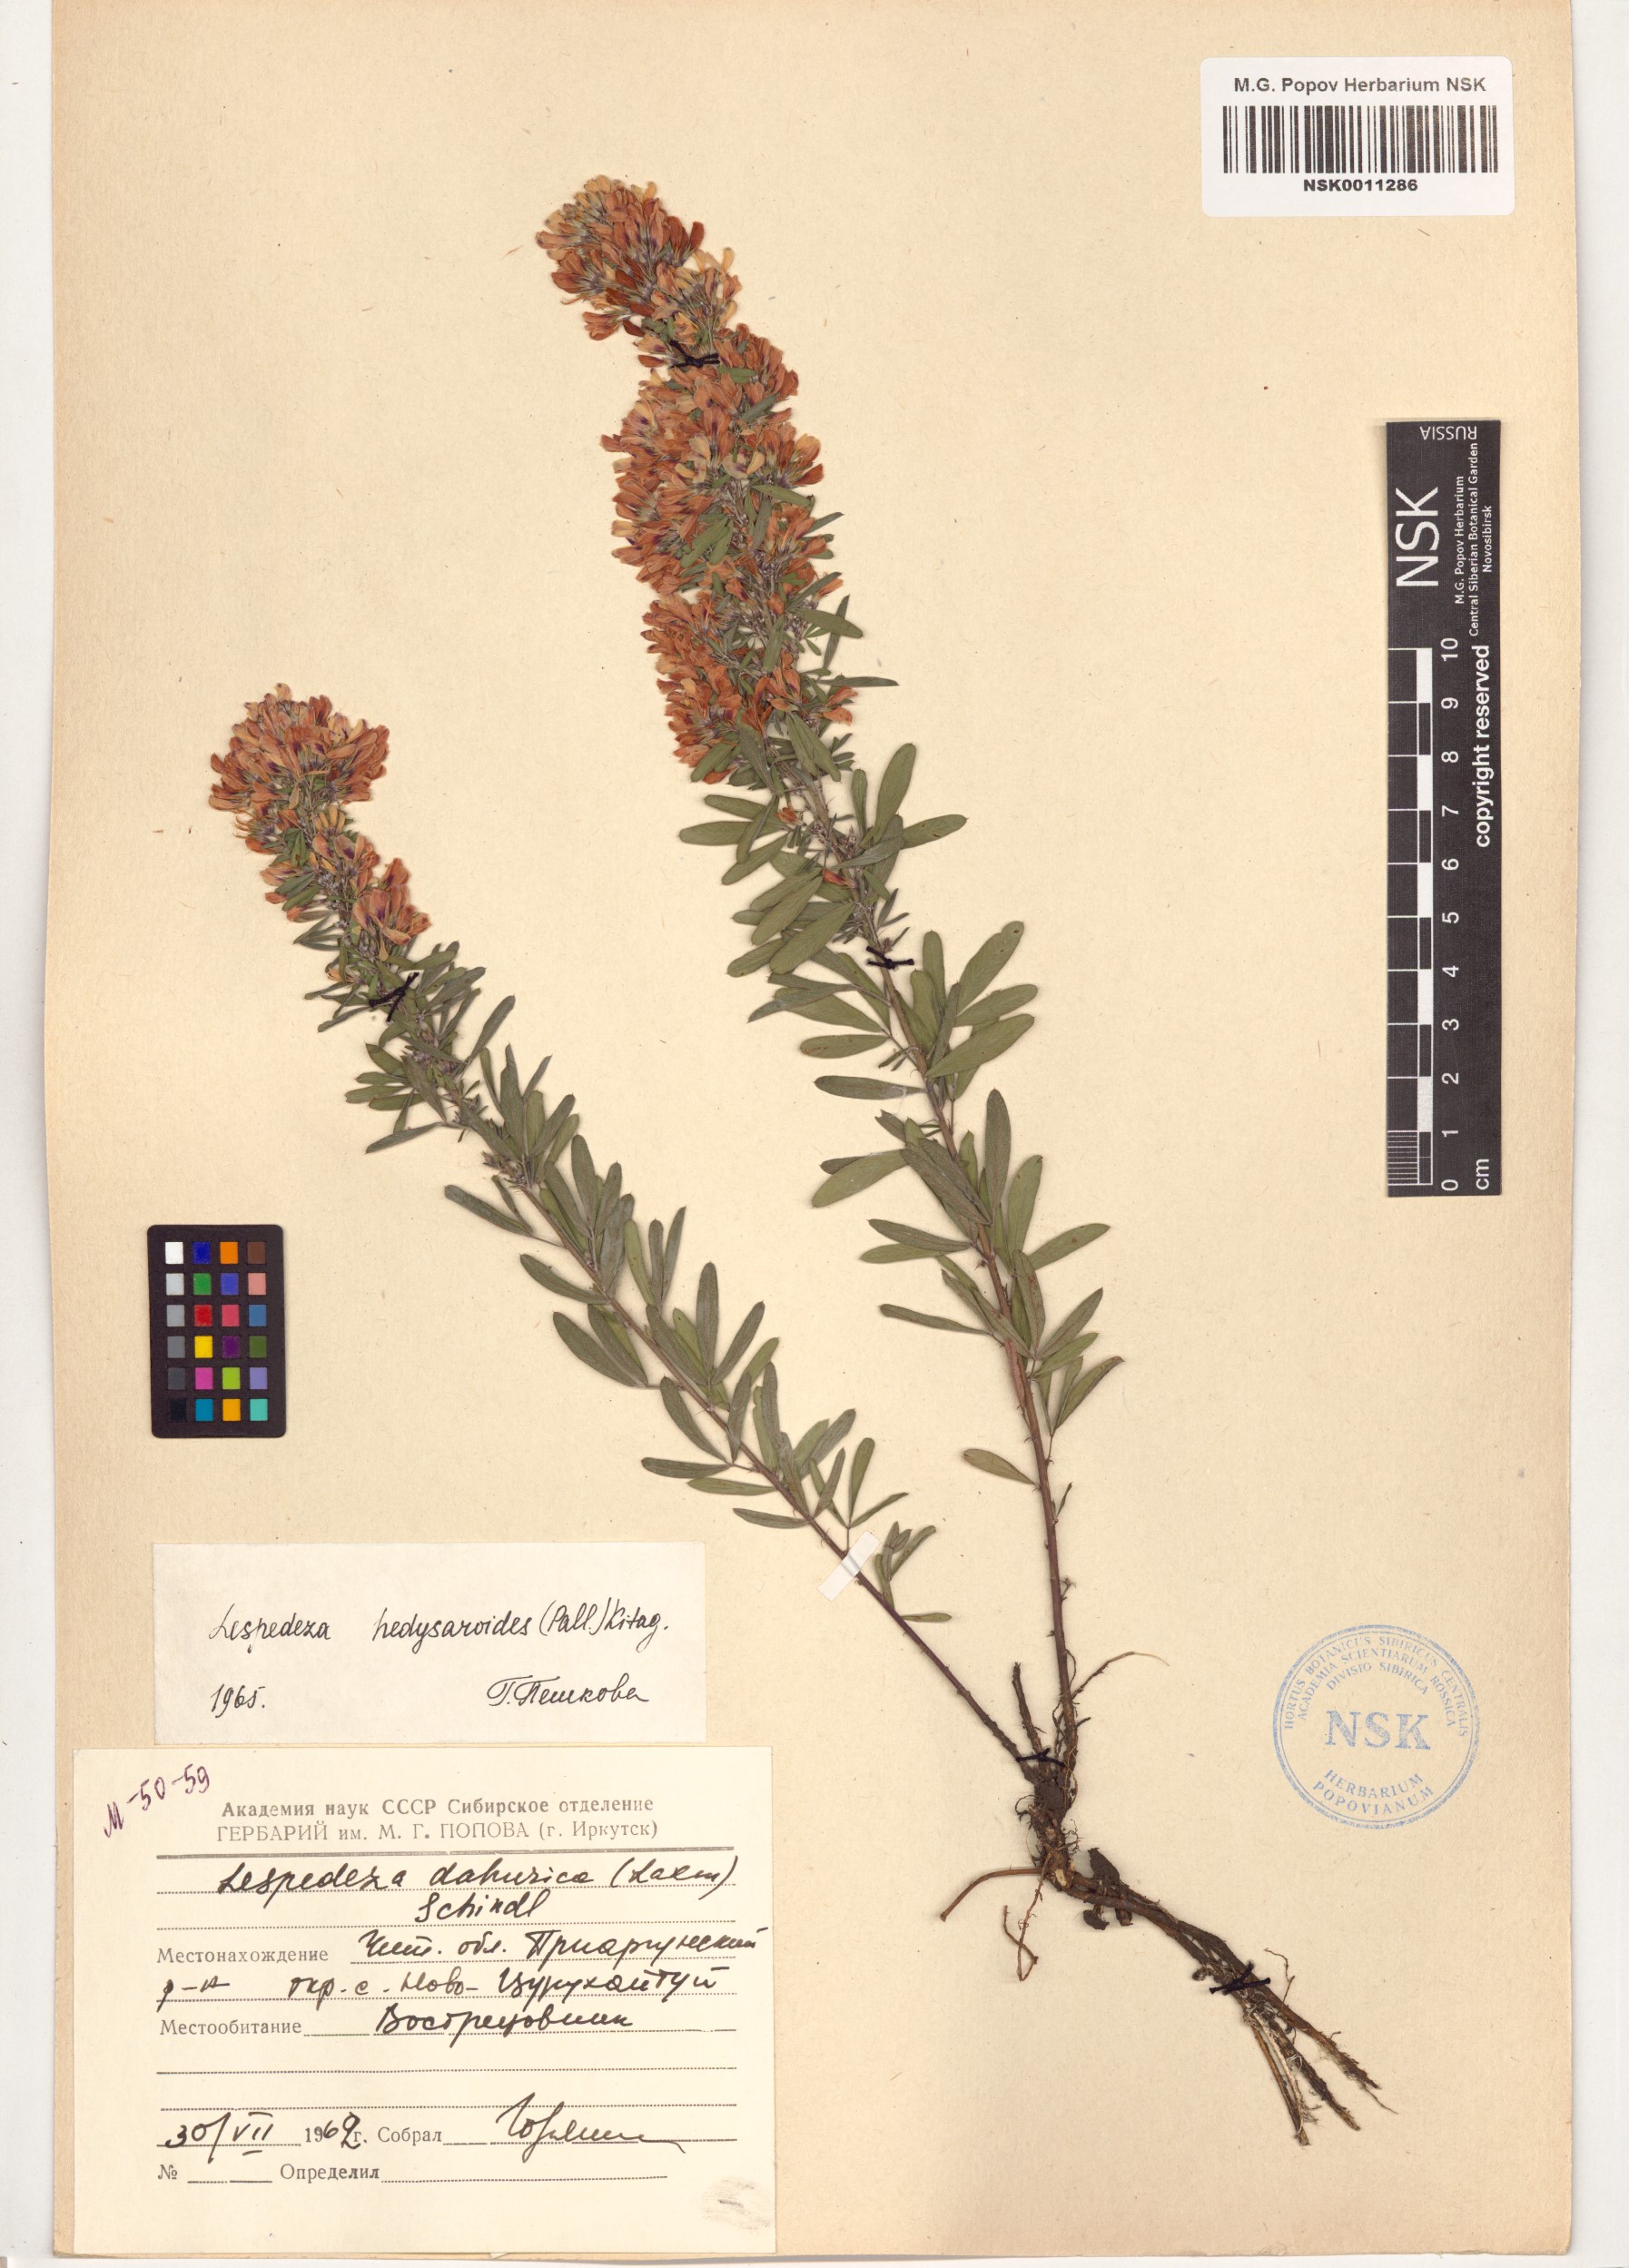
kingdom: Plantae
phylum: Tracheophyta
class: Magnoliopsida
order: Fabales
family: Fabaceae
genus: Lespedeza
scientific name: Lespedeza davurica
